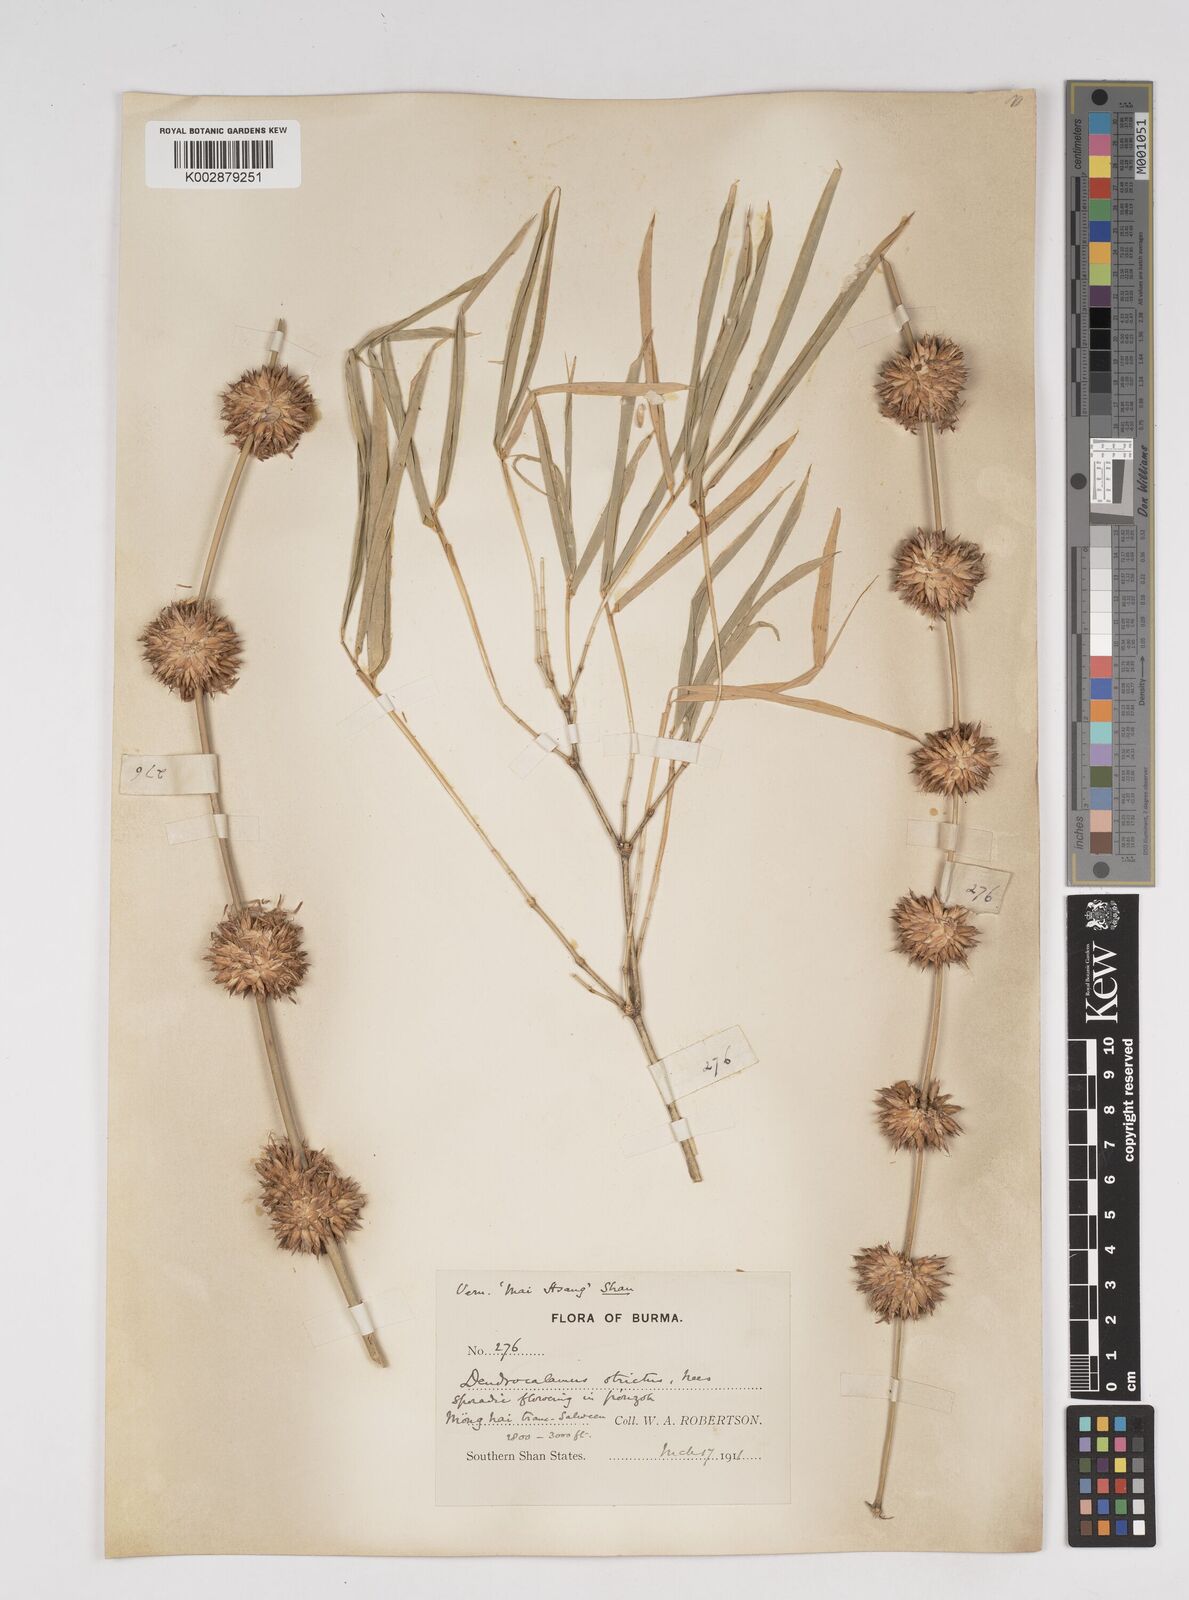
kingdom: Plantae
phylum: Tracheophyta
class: Liliopsida
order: Poales
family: Poaceae
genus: Dendrocalamus
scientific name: Dendrocalamus strictus
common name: Male bamboo
